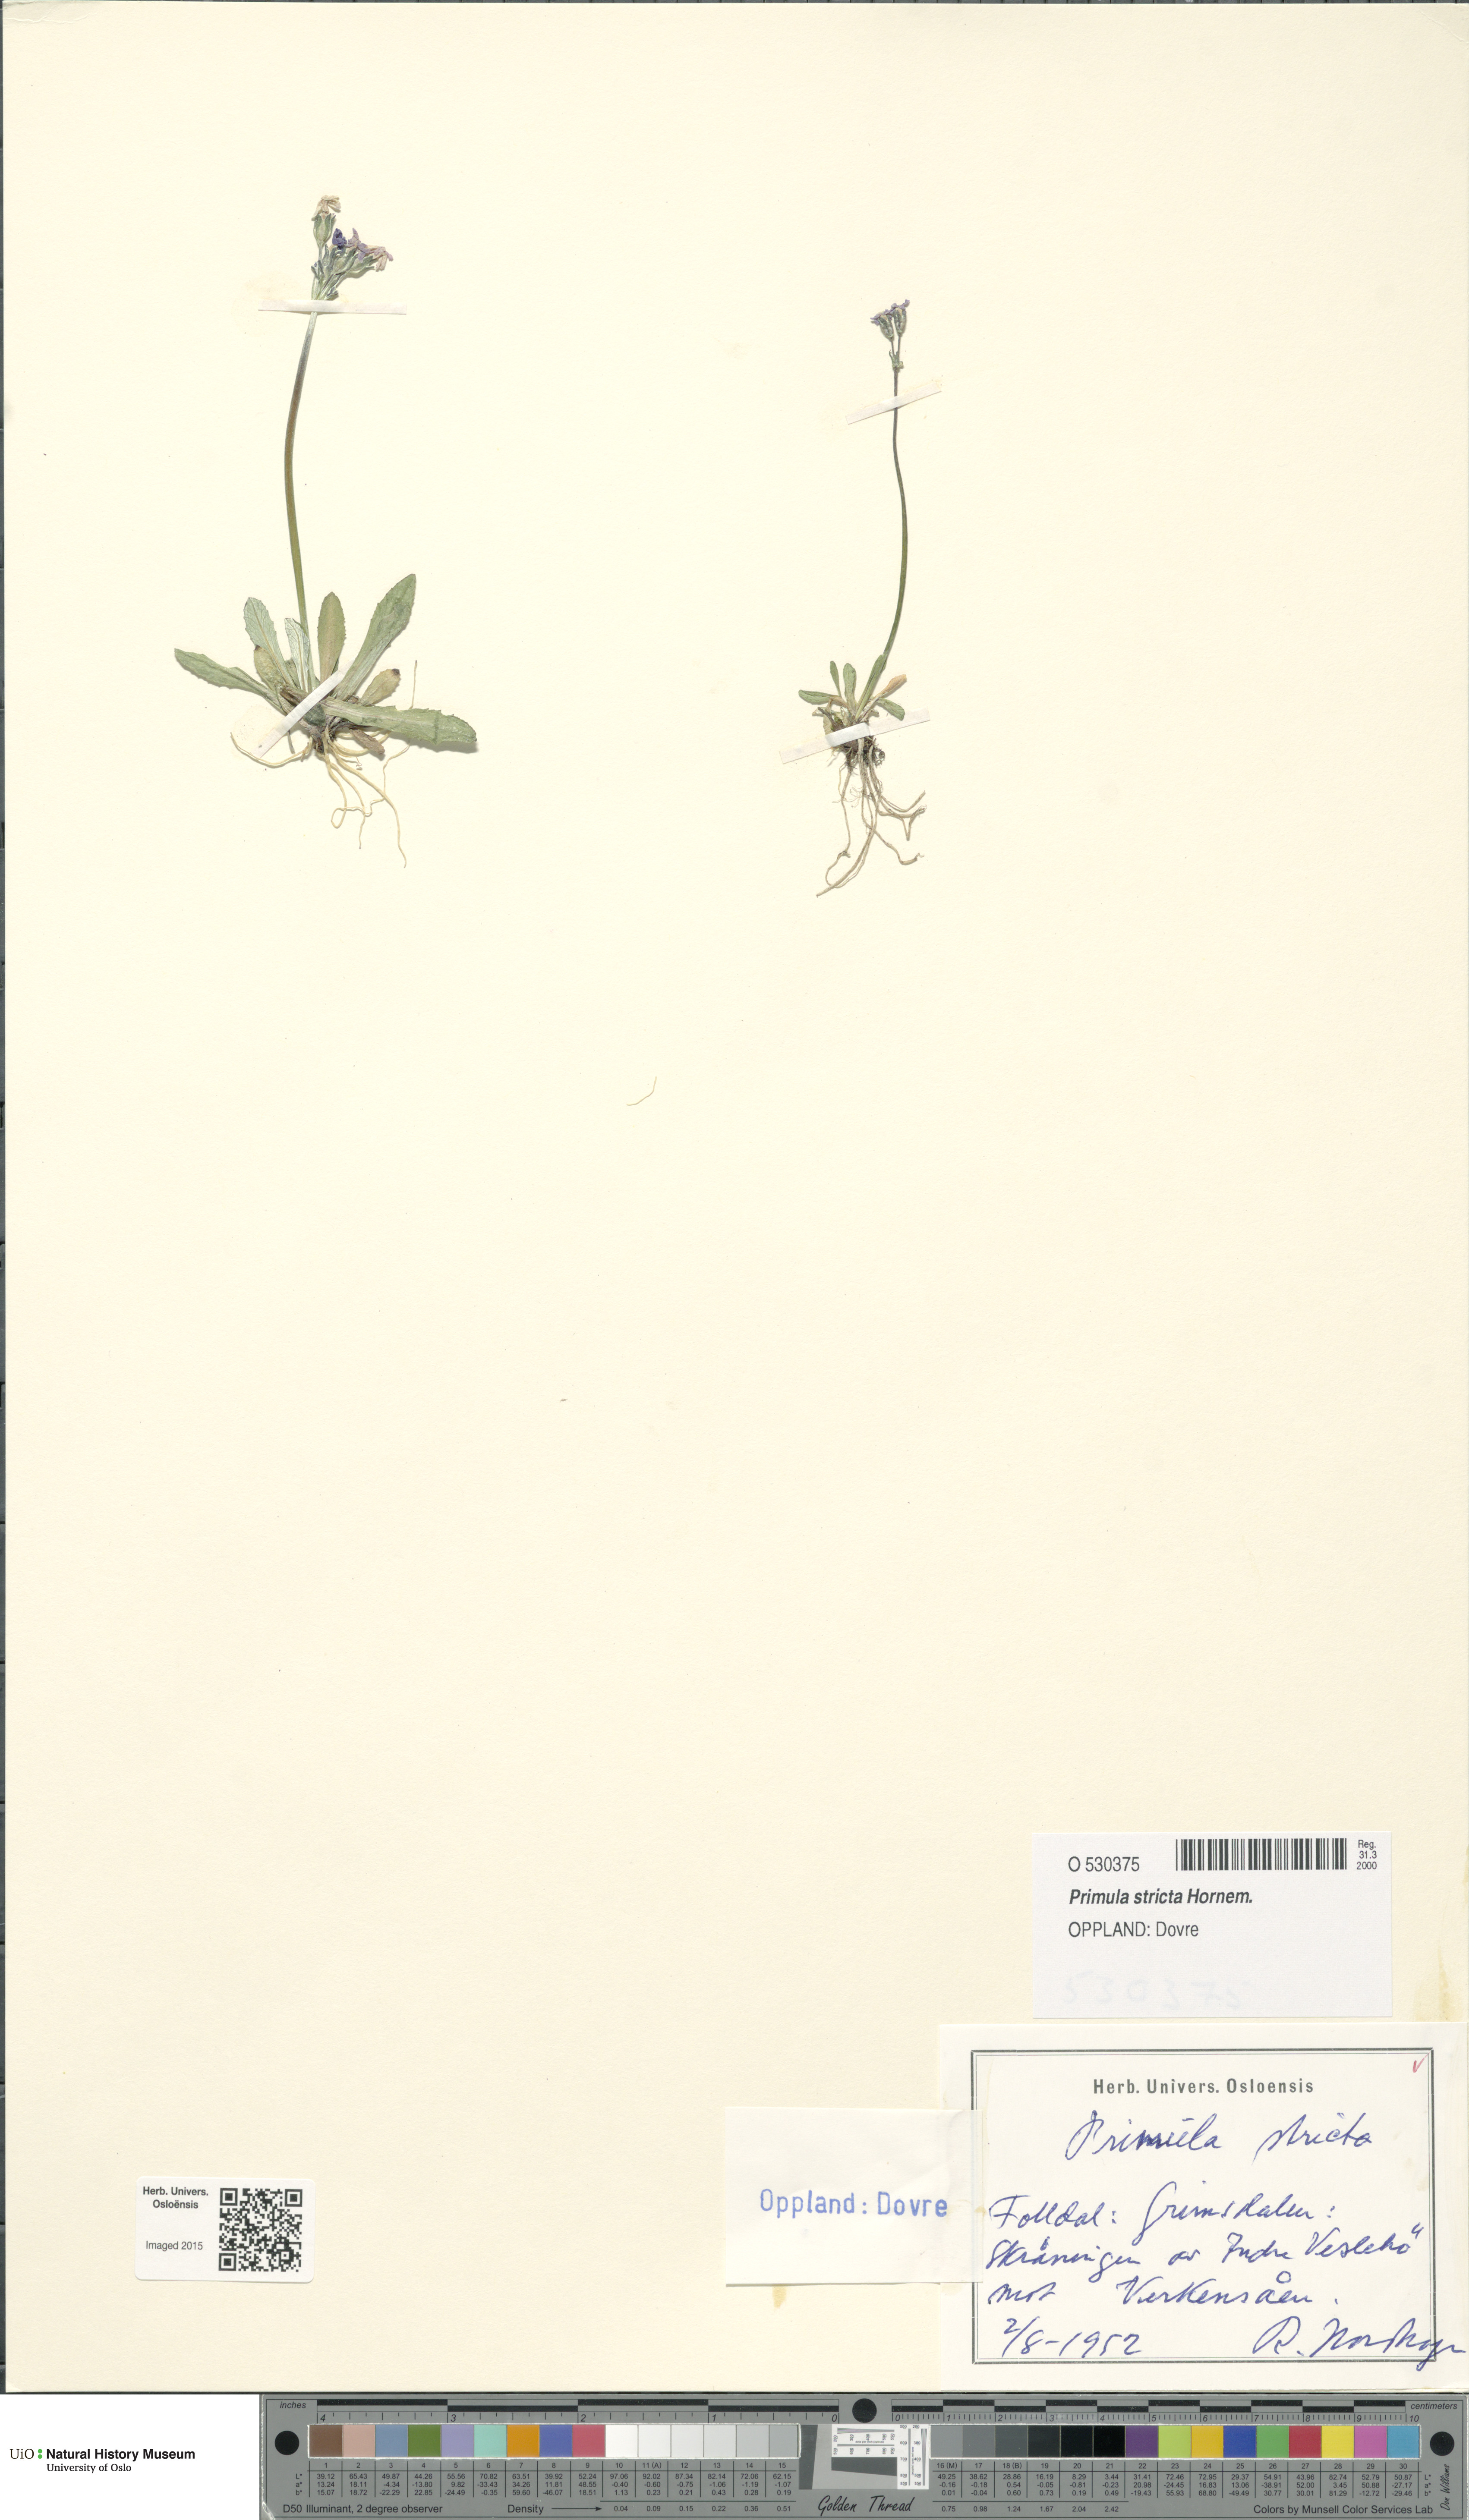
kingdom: Plantae
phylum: Tracheophyta
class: Magnoliopsida
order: Ericales
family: Primulaceae
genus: Primula
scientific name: Primula stricta
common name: Coastal primrose
